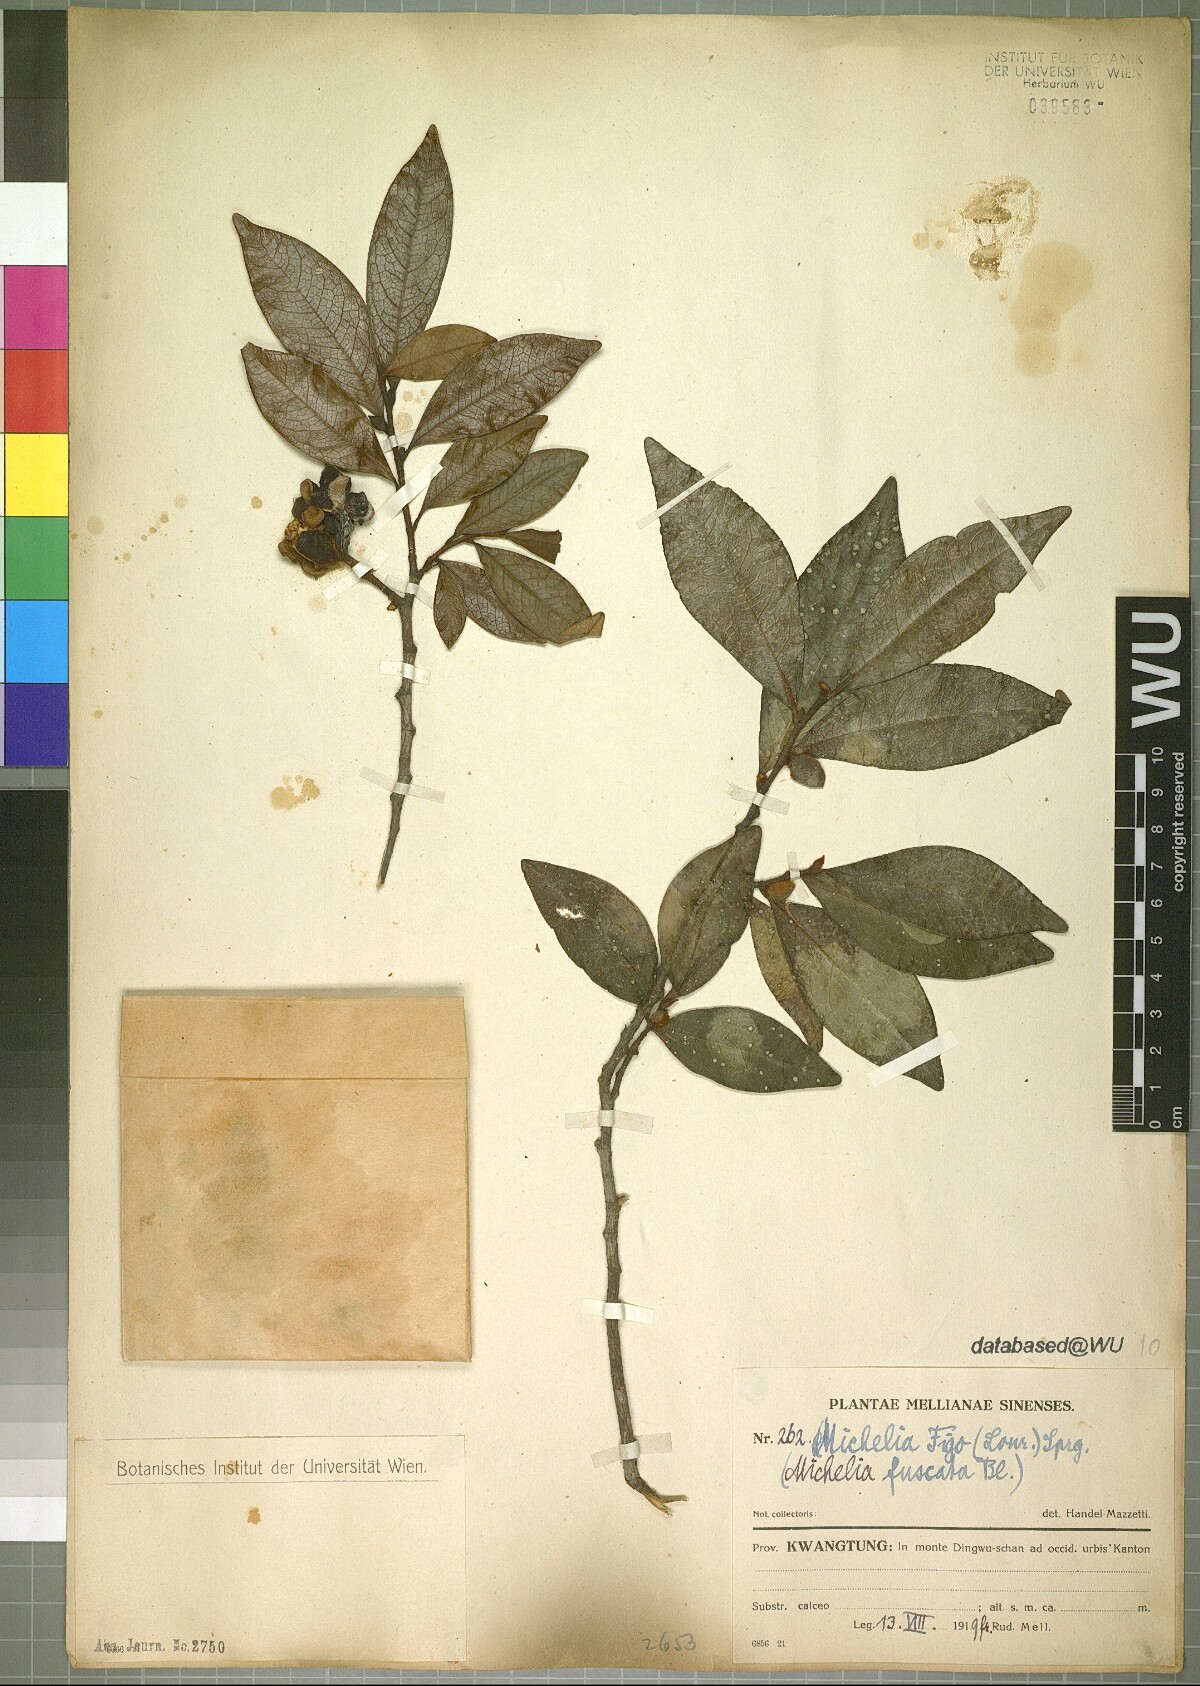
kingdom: Plantae
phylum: Tracheophyta
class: Magnoliopsida
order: Magnoliales
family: Magnoliaceae
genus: Magnolia
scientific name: Magnolia figo
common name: Banana shrub
